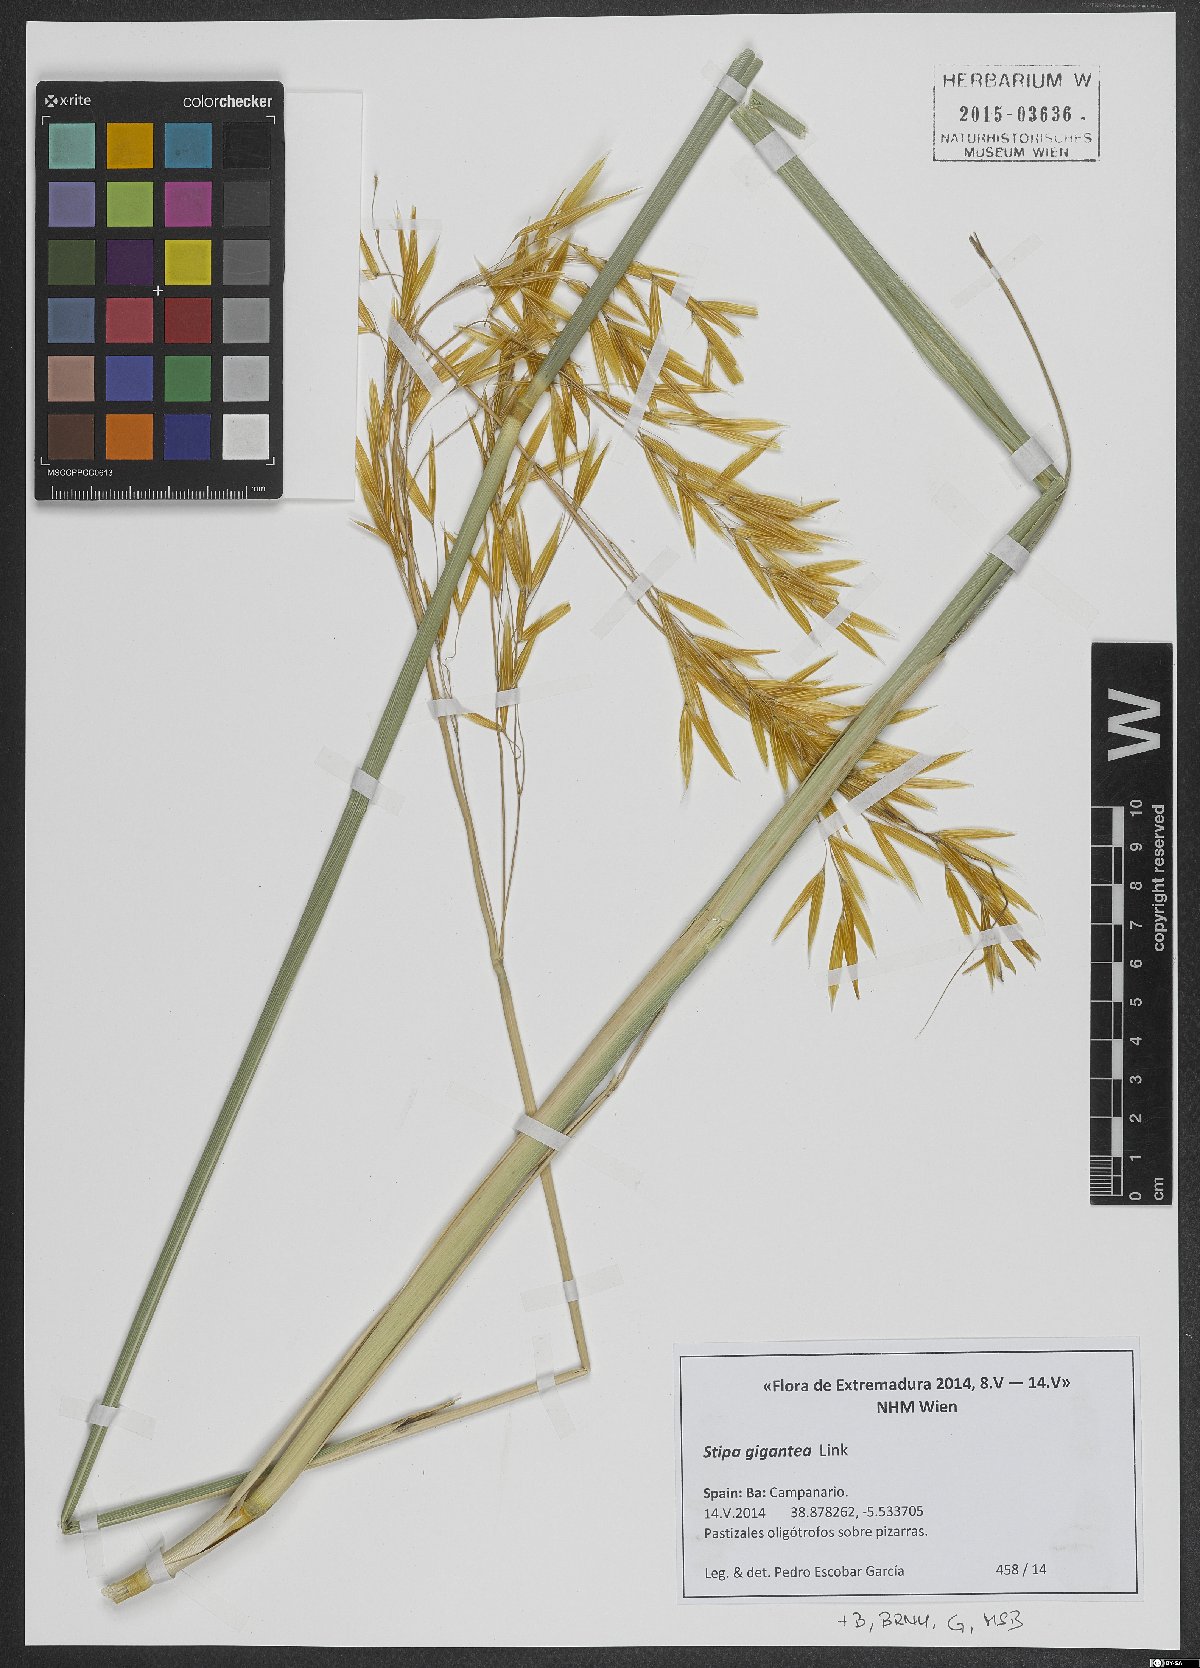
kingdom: Plantae
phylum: Tracheophyta
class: Liliopsida
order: Poales
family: Poaceae
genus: Celtica
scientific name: Celtica gigantea
